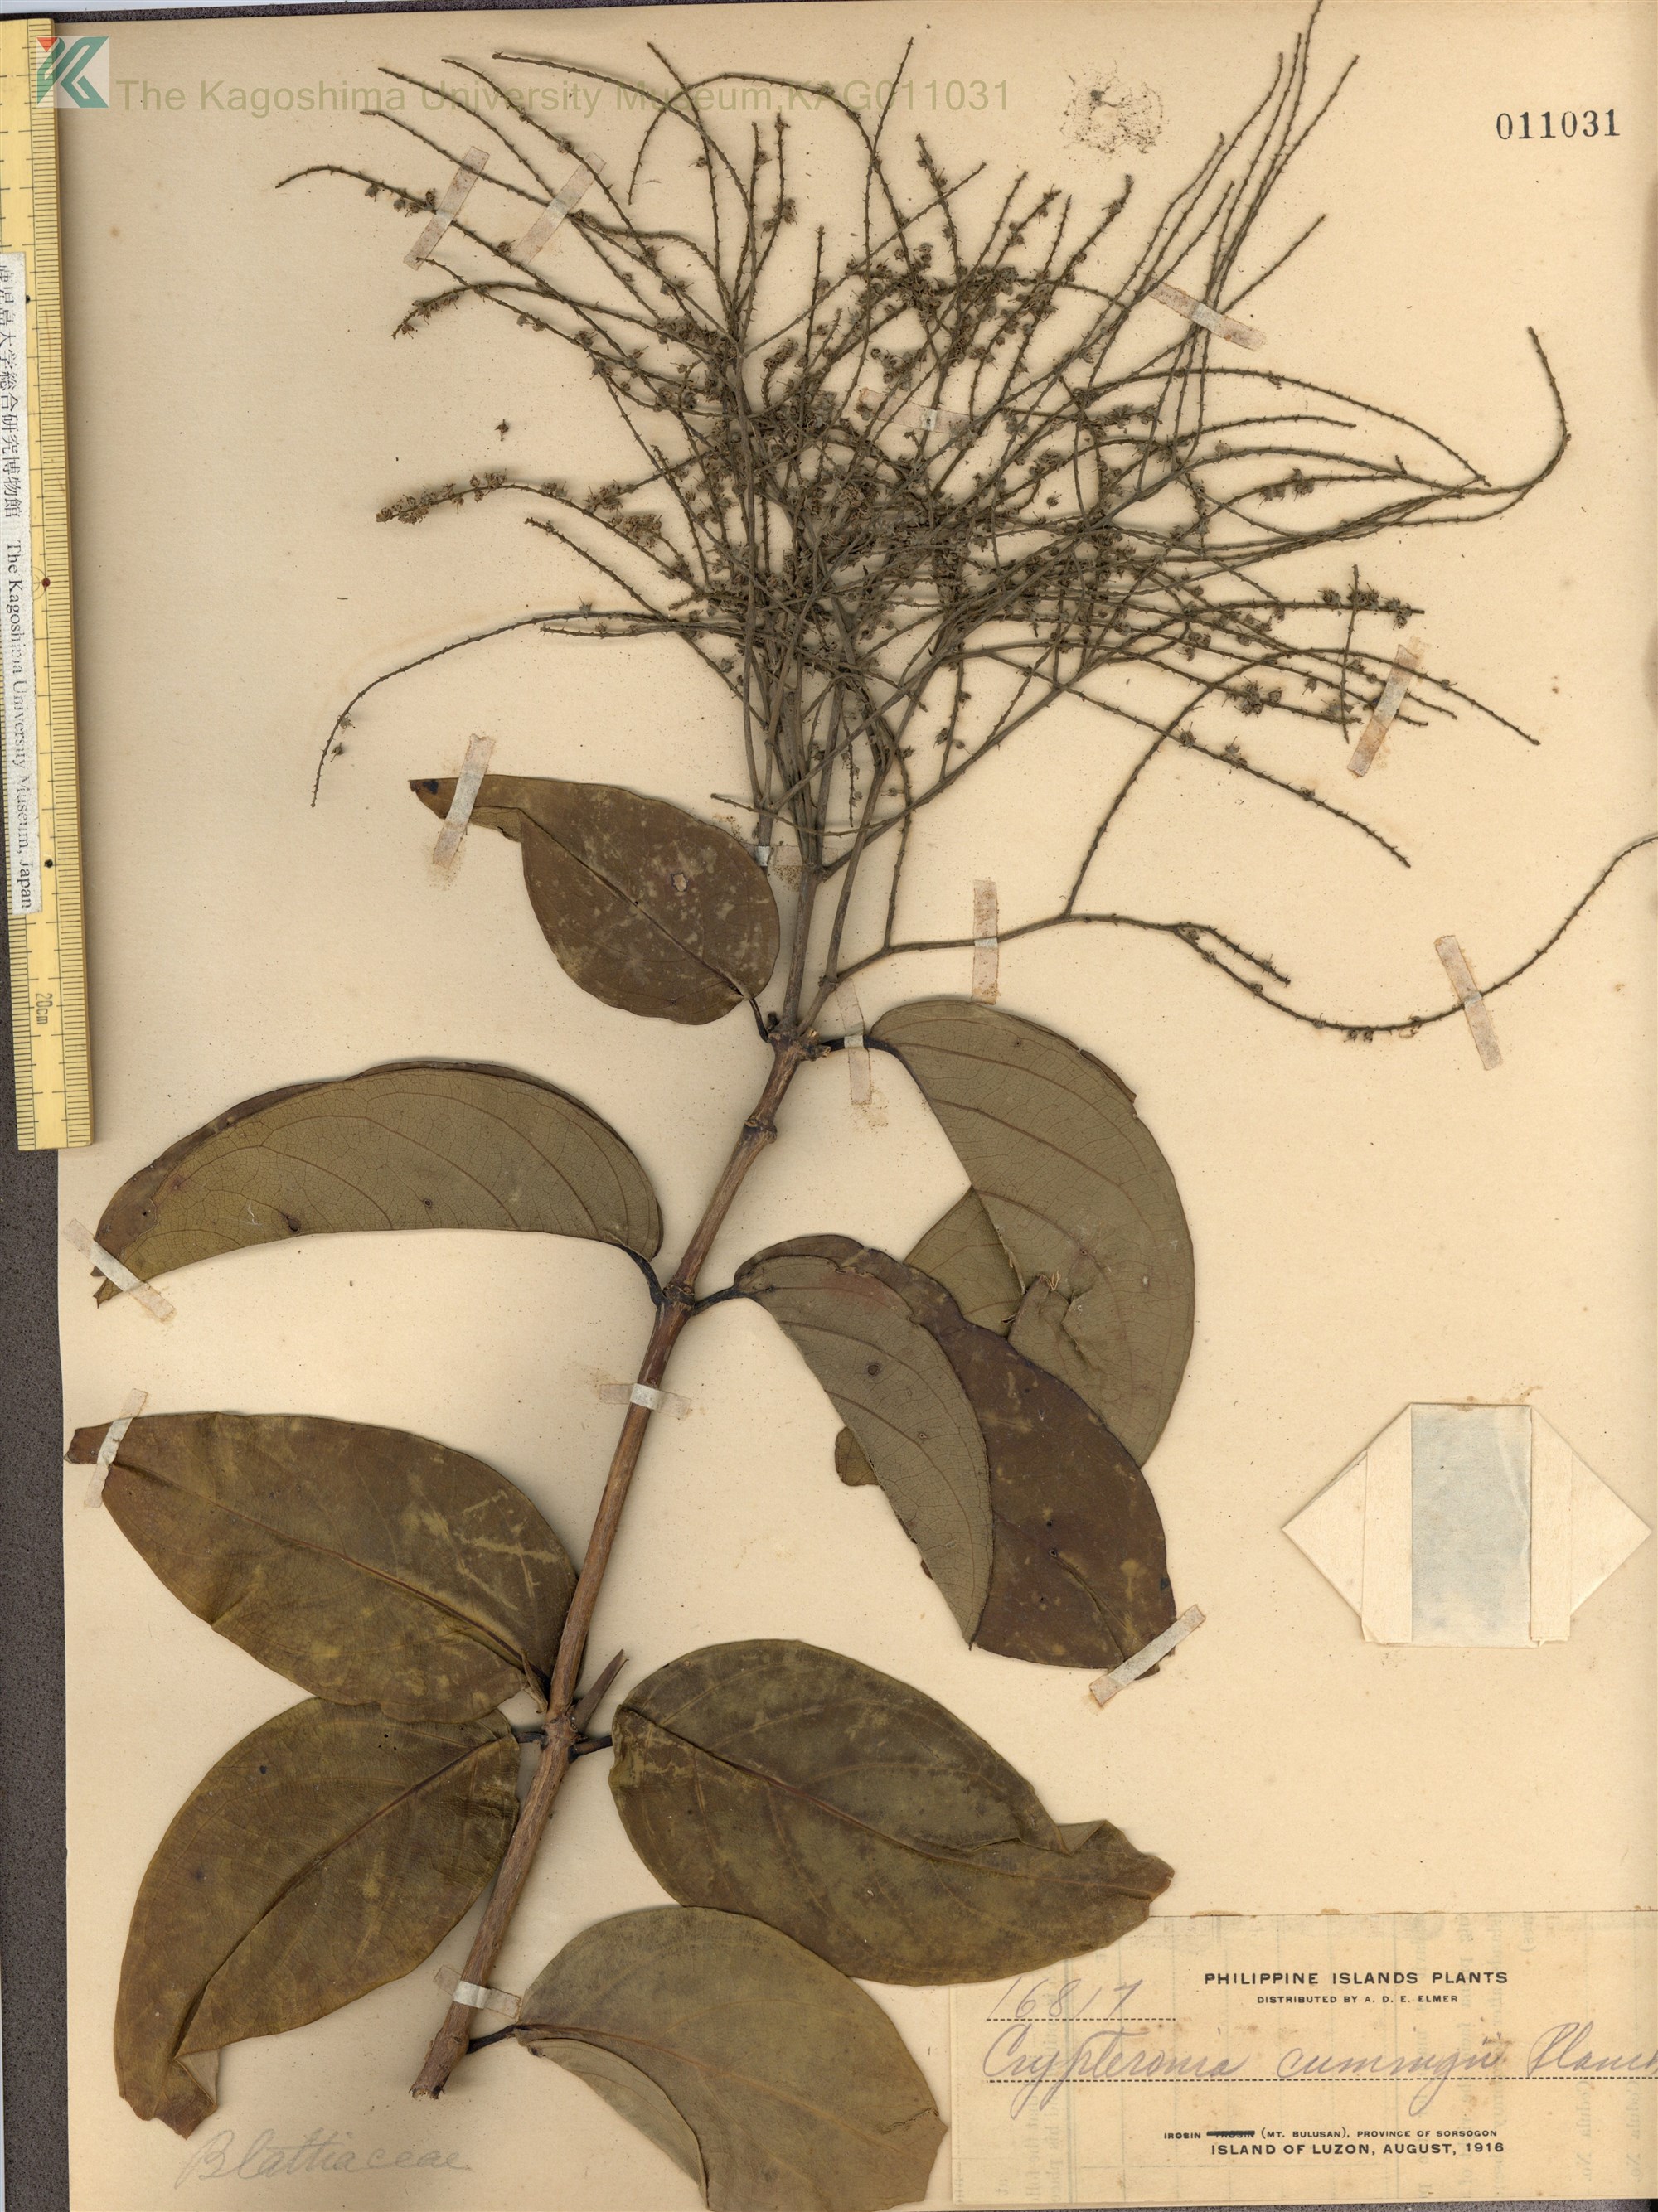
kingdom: Plantae
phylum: Tracheophyta
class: Magnoliopsida
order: Myrtales
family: Crypteroniaceae
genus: Crypteronia
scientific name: Crypteronia cumingii
